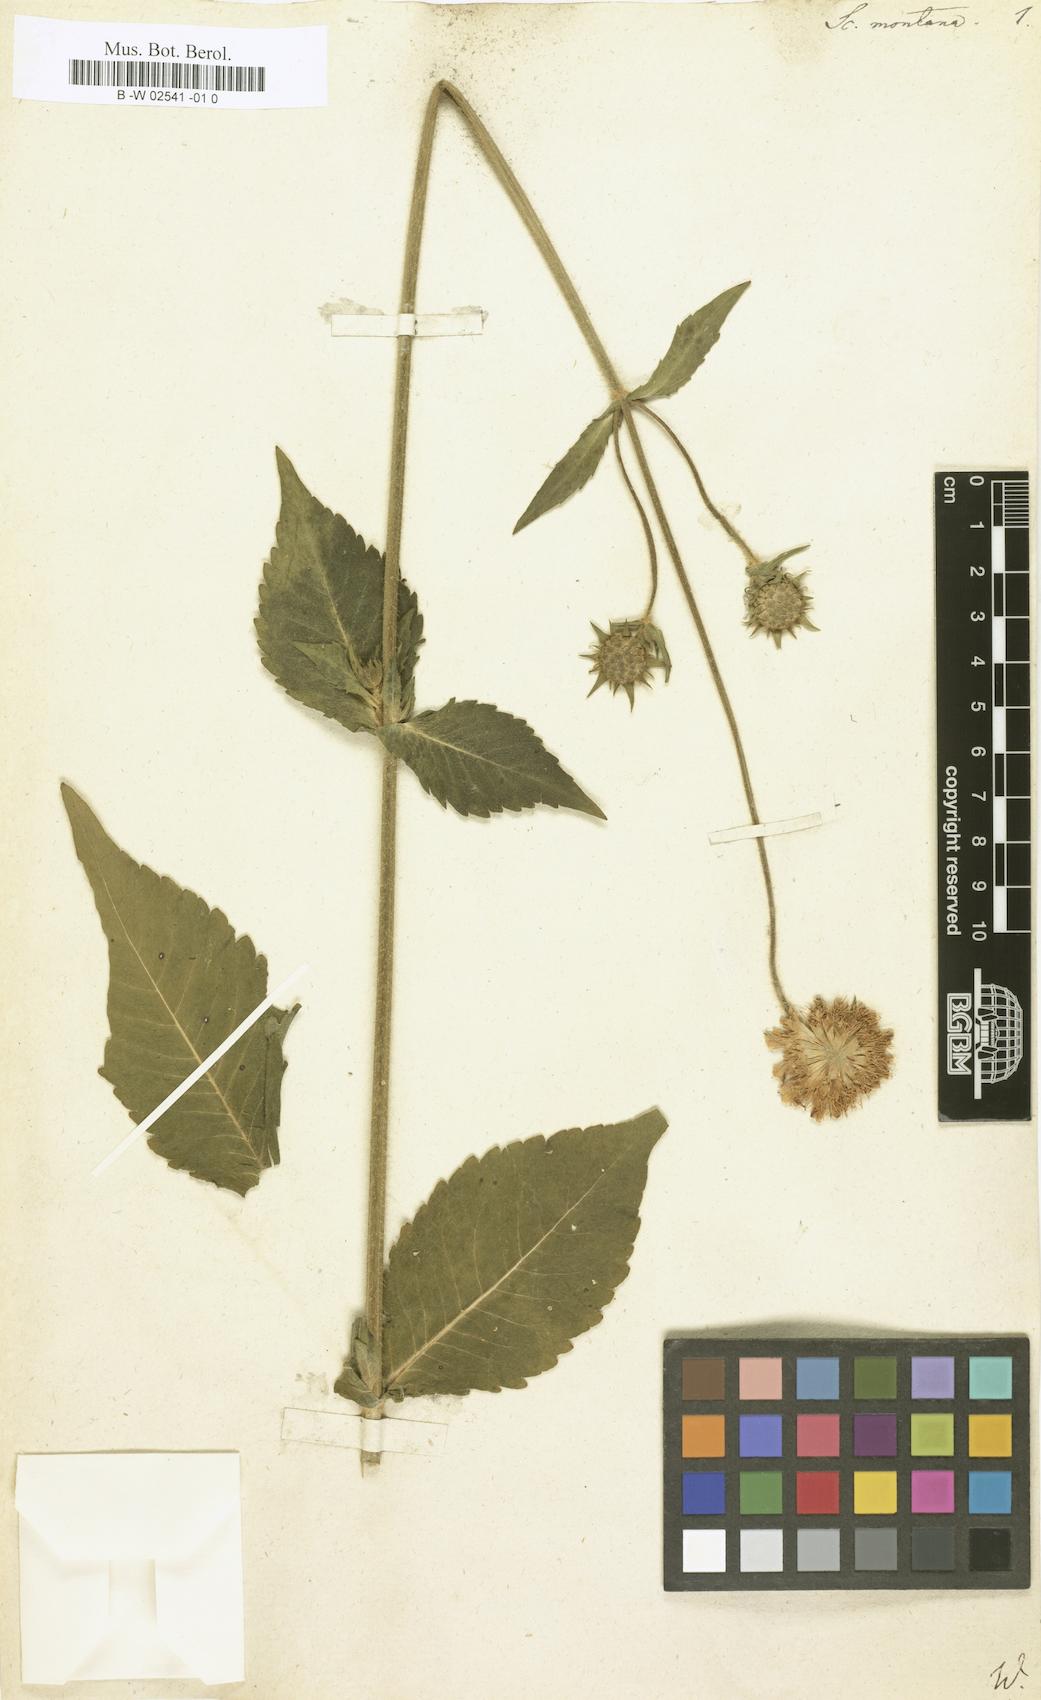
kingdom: Plantae
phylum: Tracheophyta
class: Magnoliopsida
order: Dipsacales
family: Caprifoliaceae
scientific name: Caprifoliaceae
